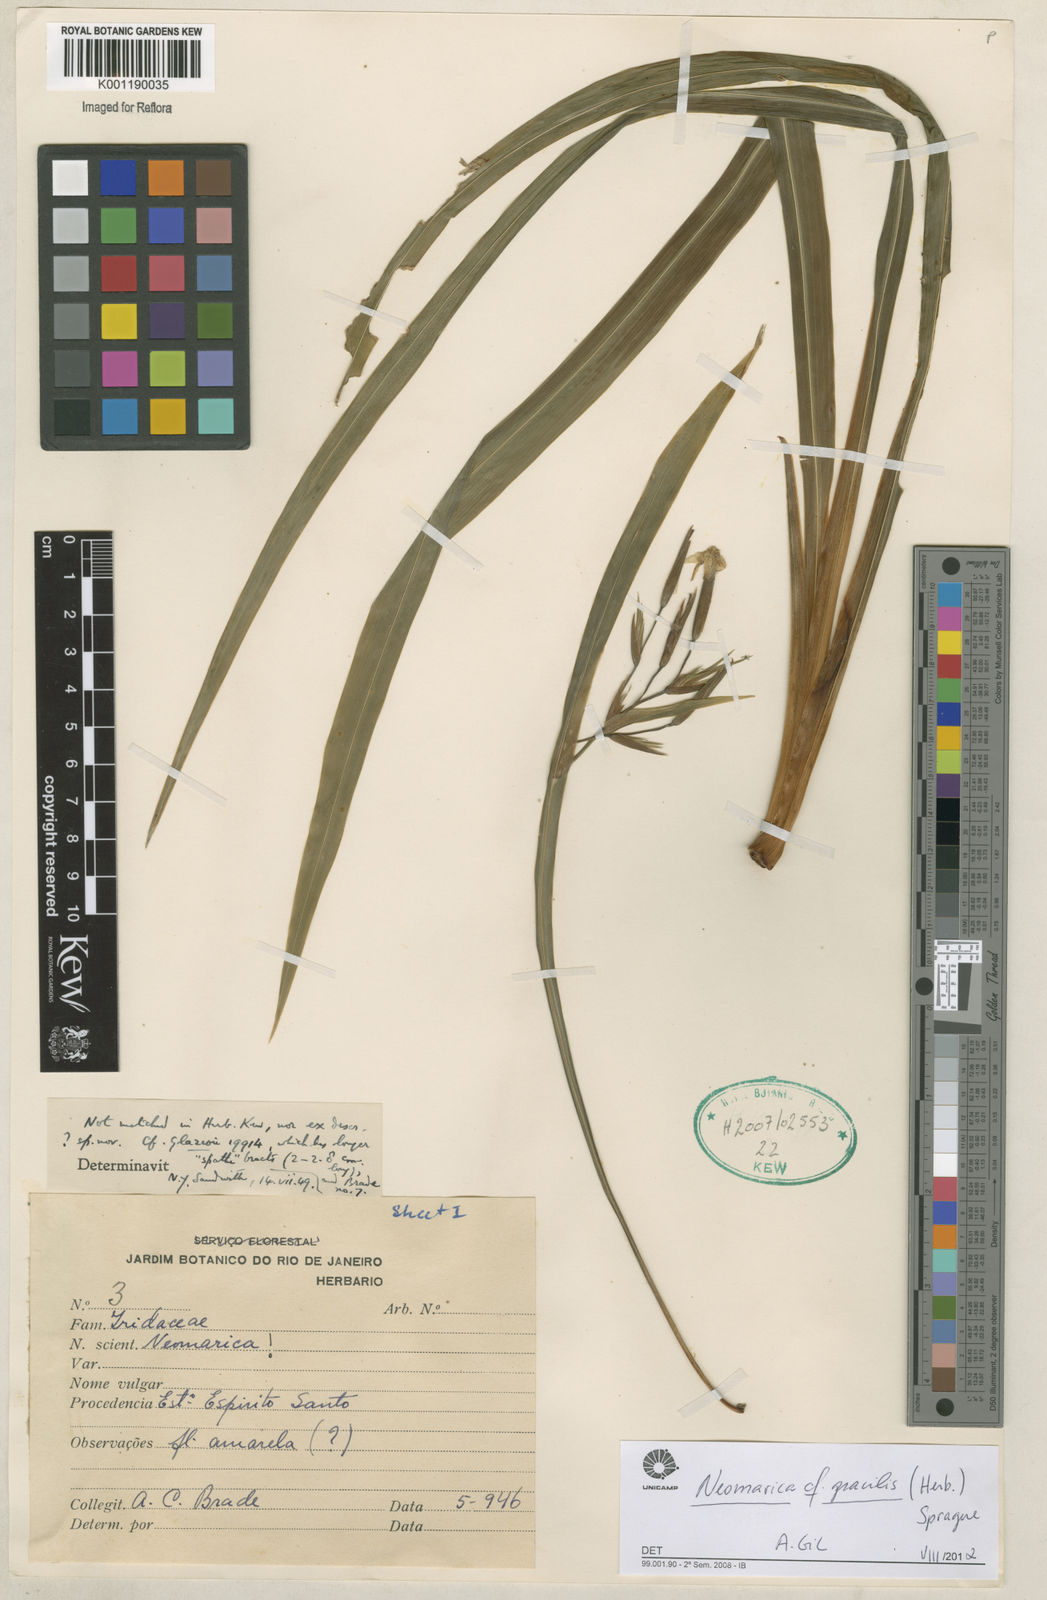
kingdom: Plantae
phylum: Tracheophyta
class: Liliopsida
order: Asparagales
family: Iridaceae
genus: Trimezia
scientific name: Trimezia gracilis
